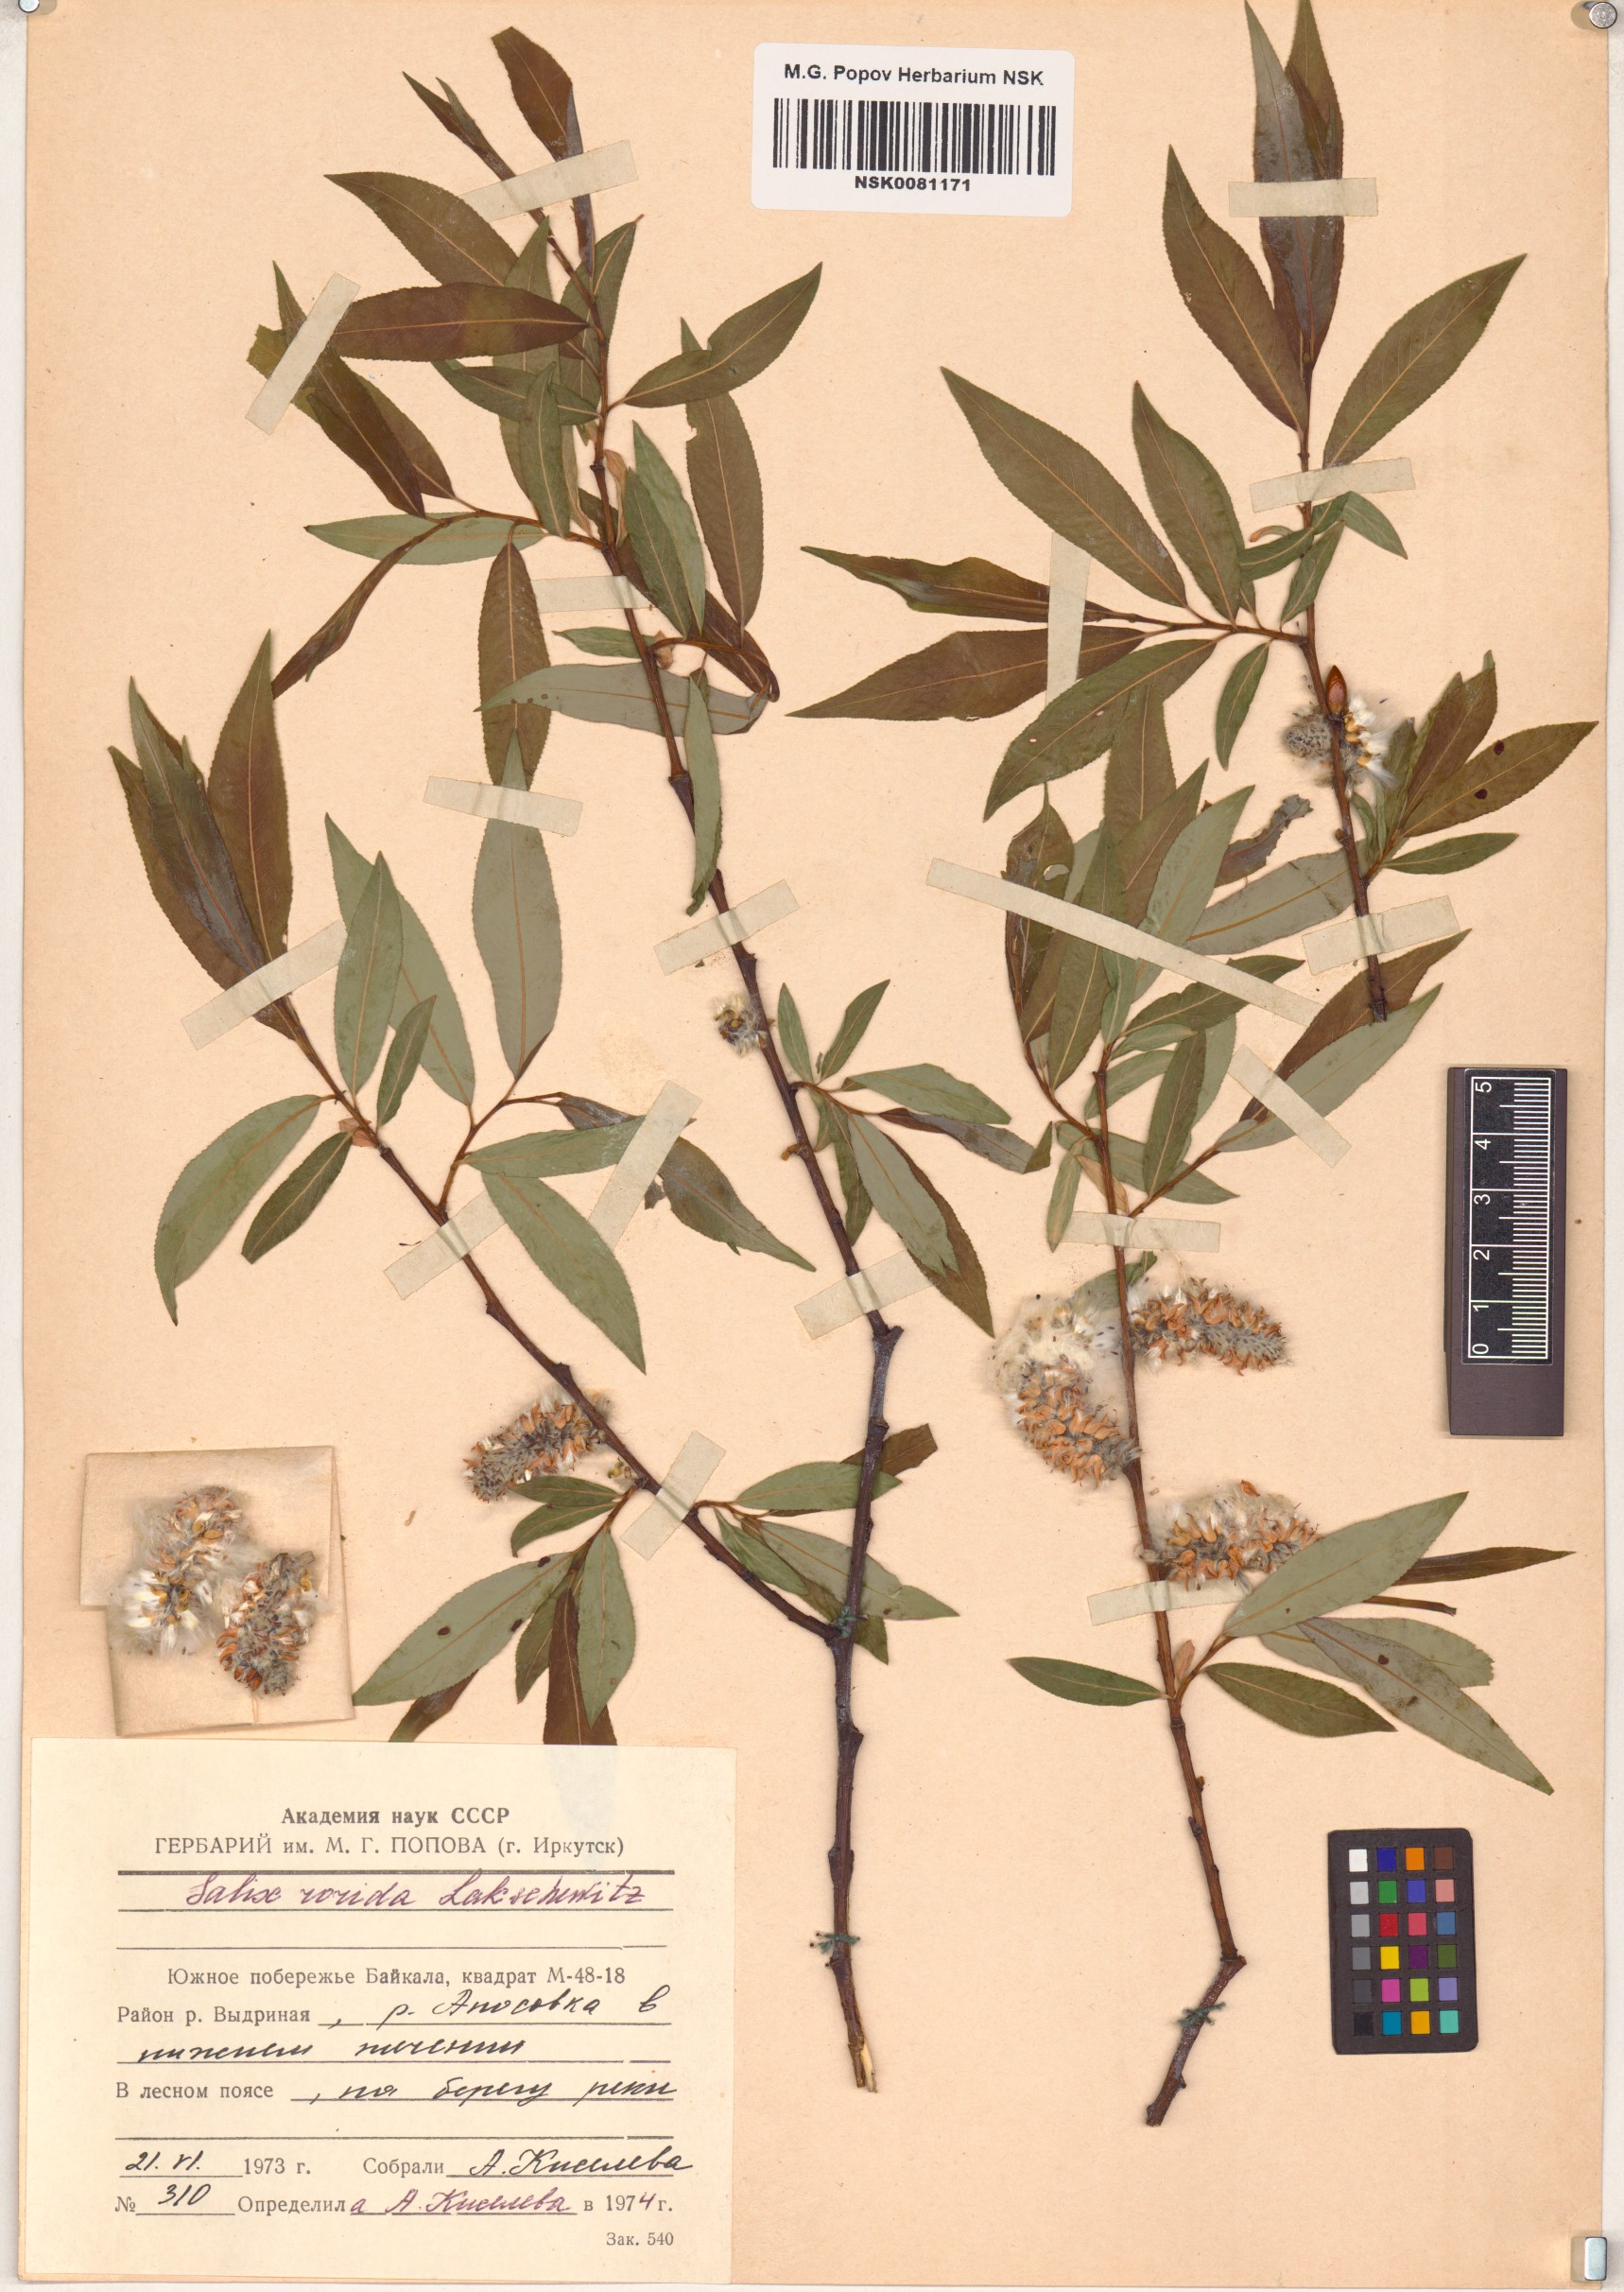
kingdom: Plantae
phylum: Tracheophyta
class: Magnoliopsida
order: Malpighiales
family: Salicaceae
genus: Salix
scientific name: Salix rorida
